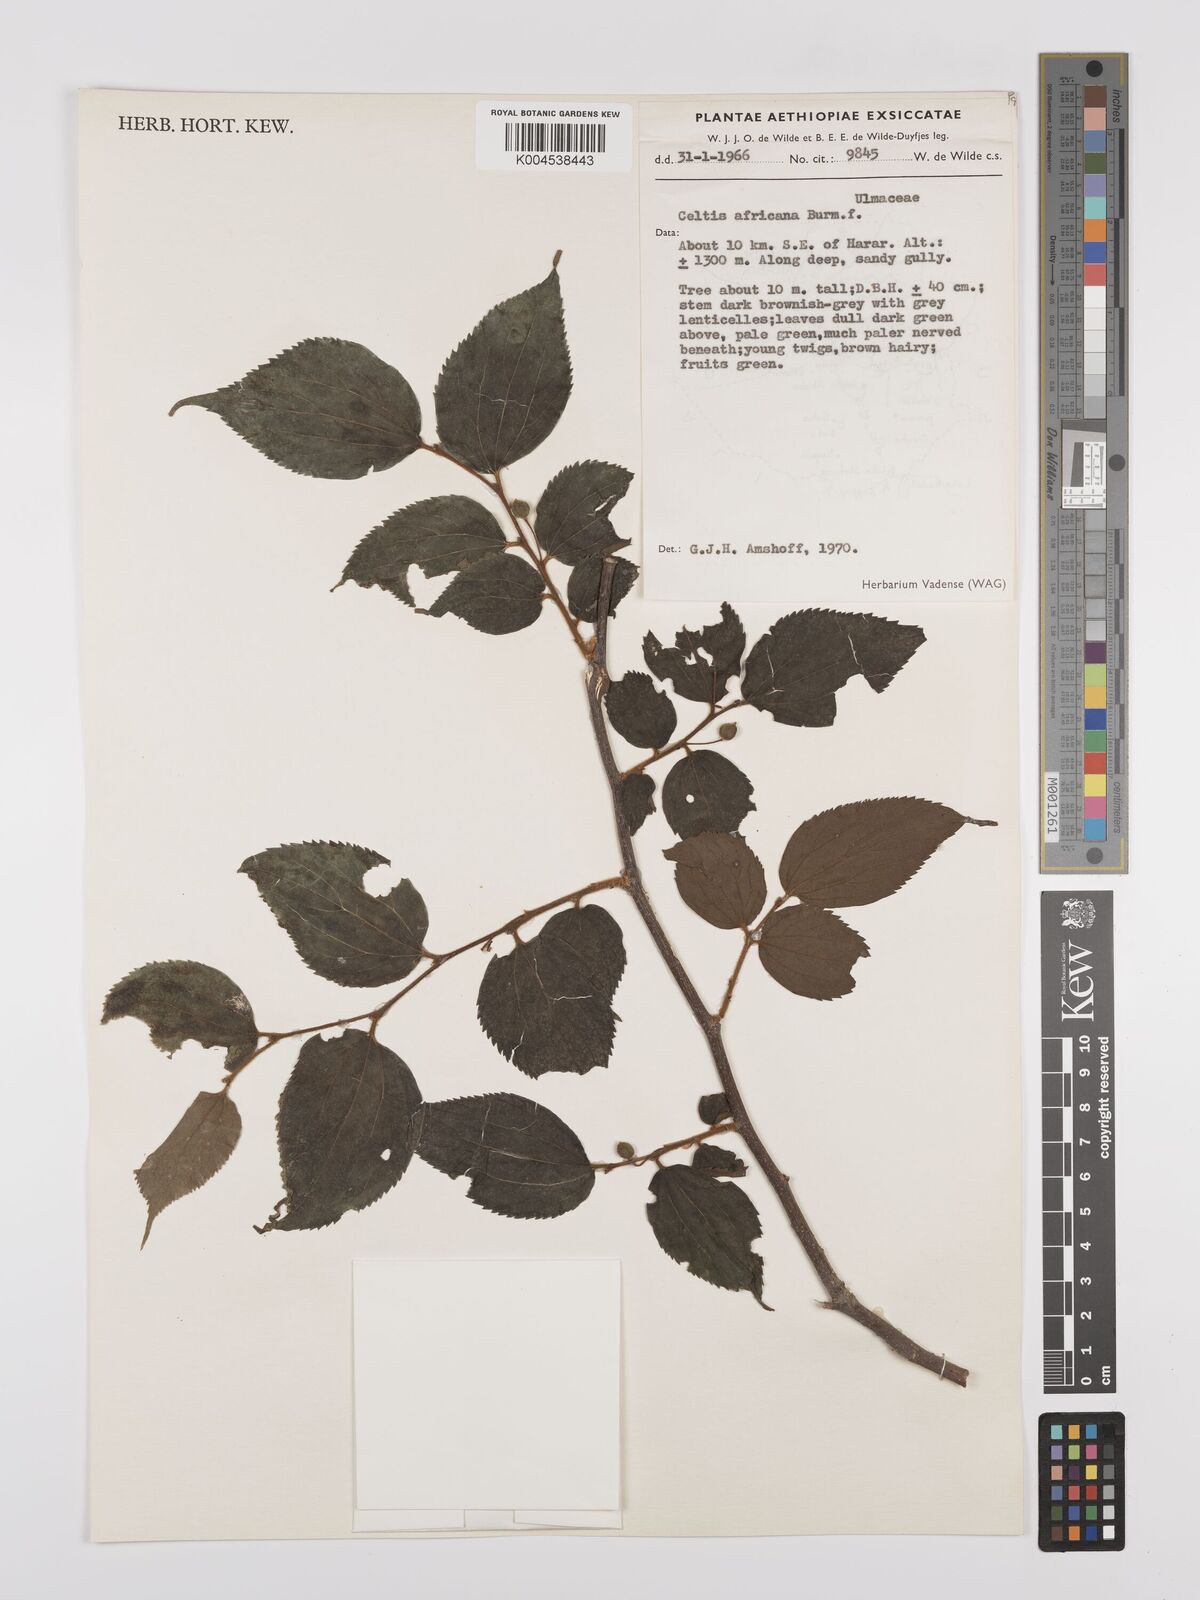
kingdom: Plantae
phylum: Tracheophyta
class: Magnoliopsida
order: Rosales
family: Cannabaceae
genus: Celtis
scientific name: Celtis africana
